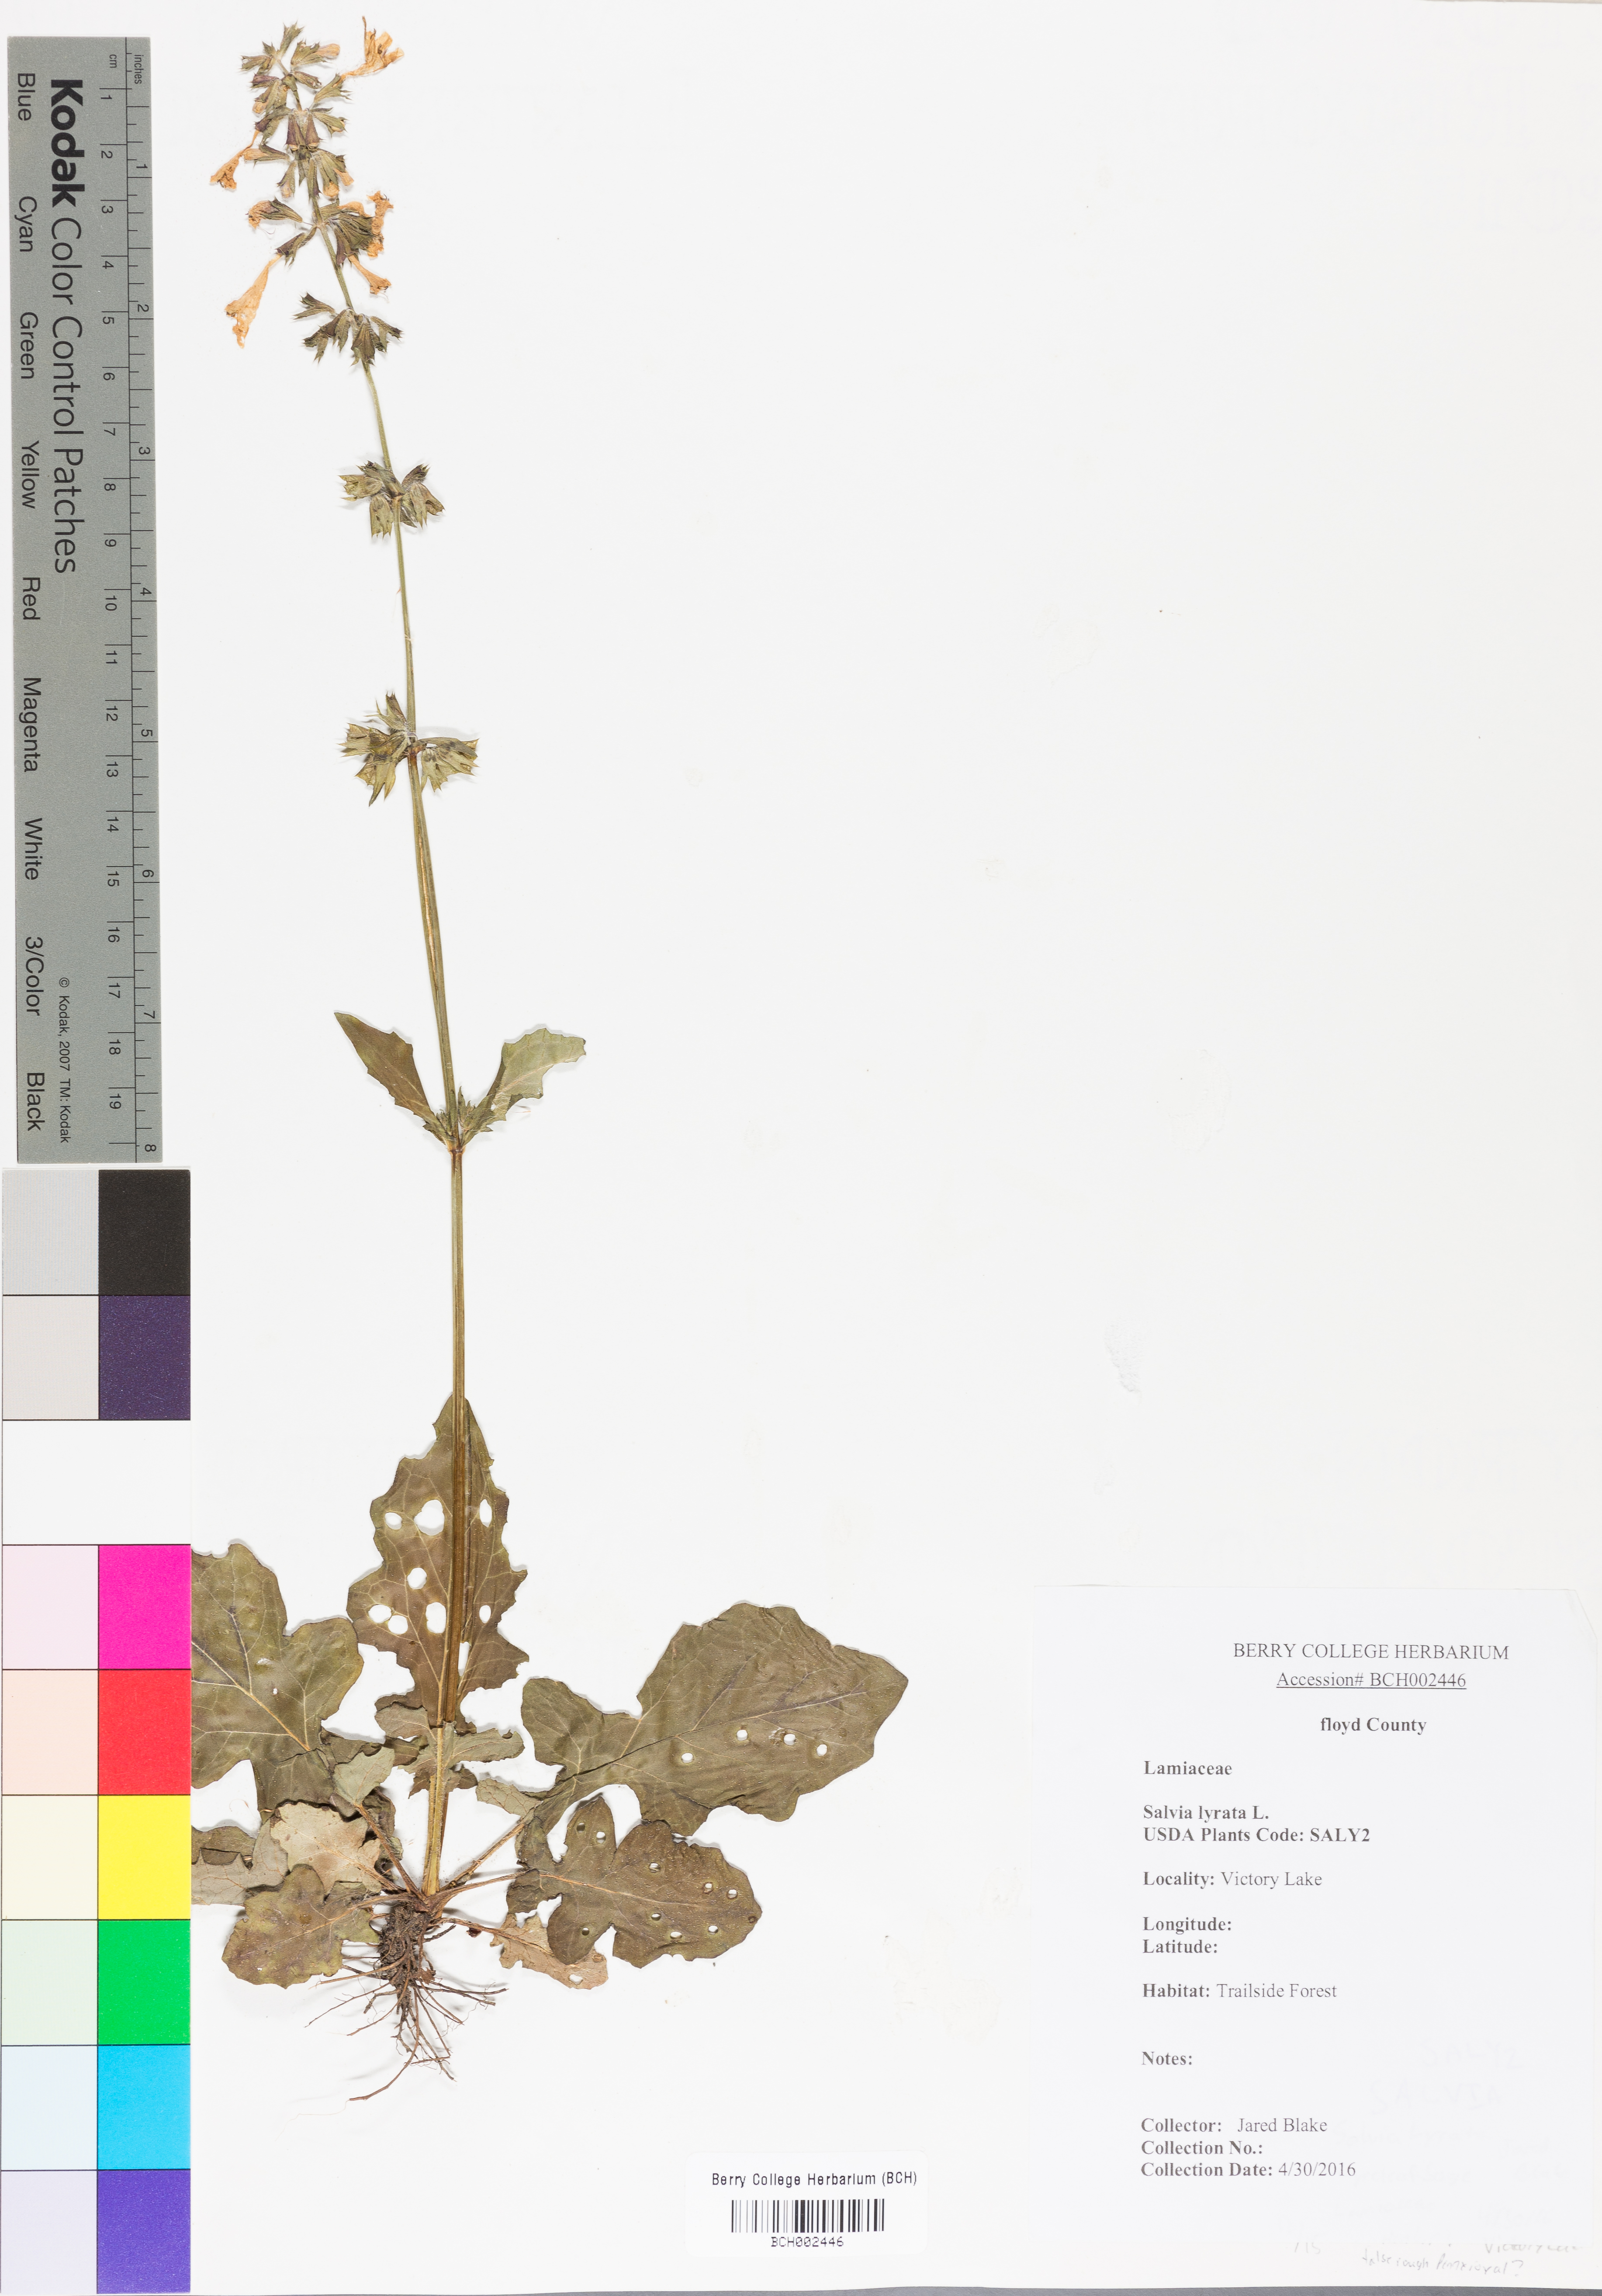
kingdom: Plantae
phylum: Tracheophyta
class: Magnoliopsida
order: Lamiales
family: Lamiaceae
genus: Salvia
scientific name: Salvia lyrata
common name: Cancerweed
